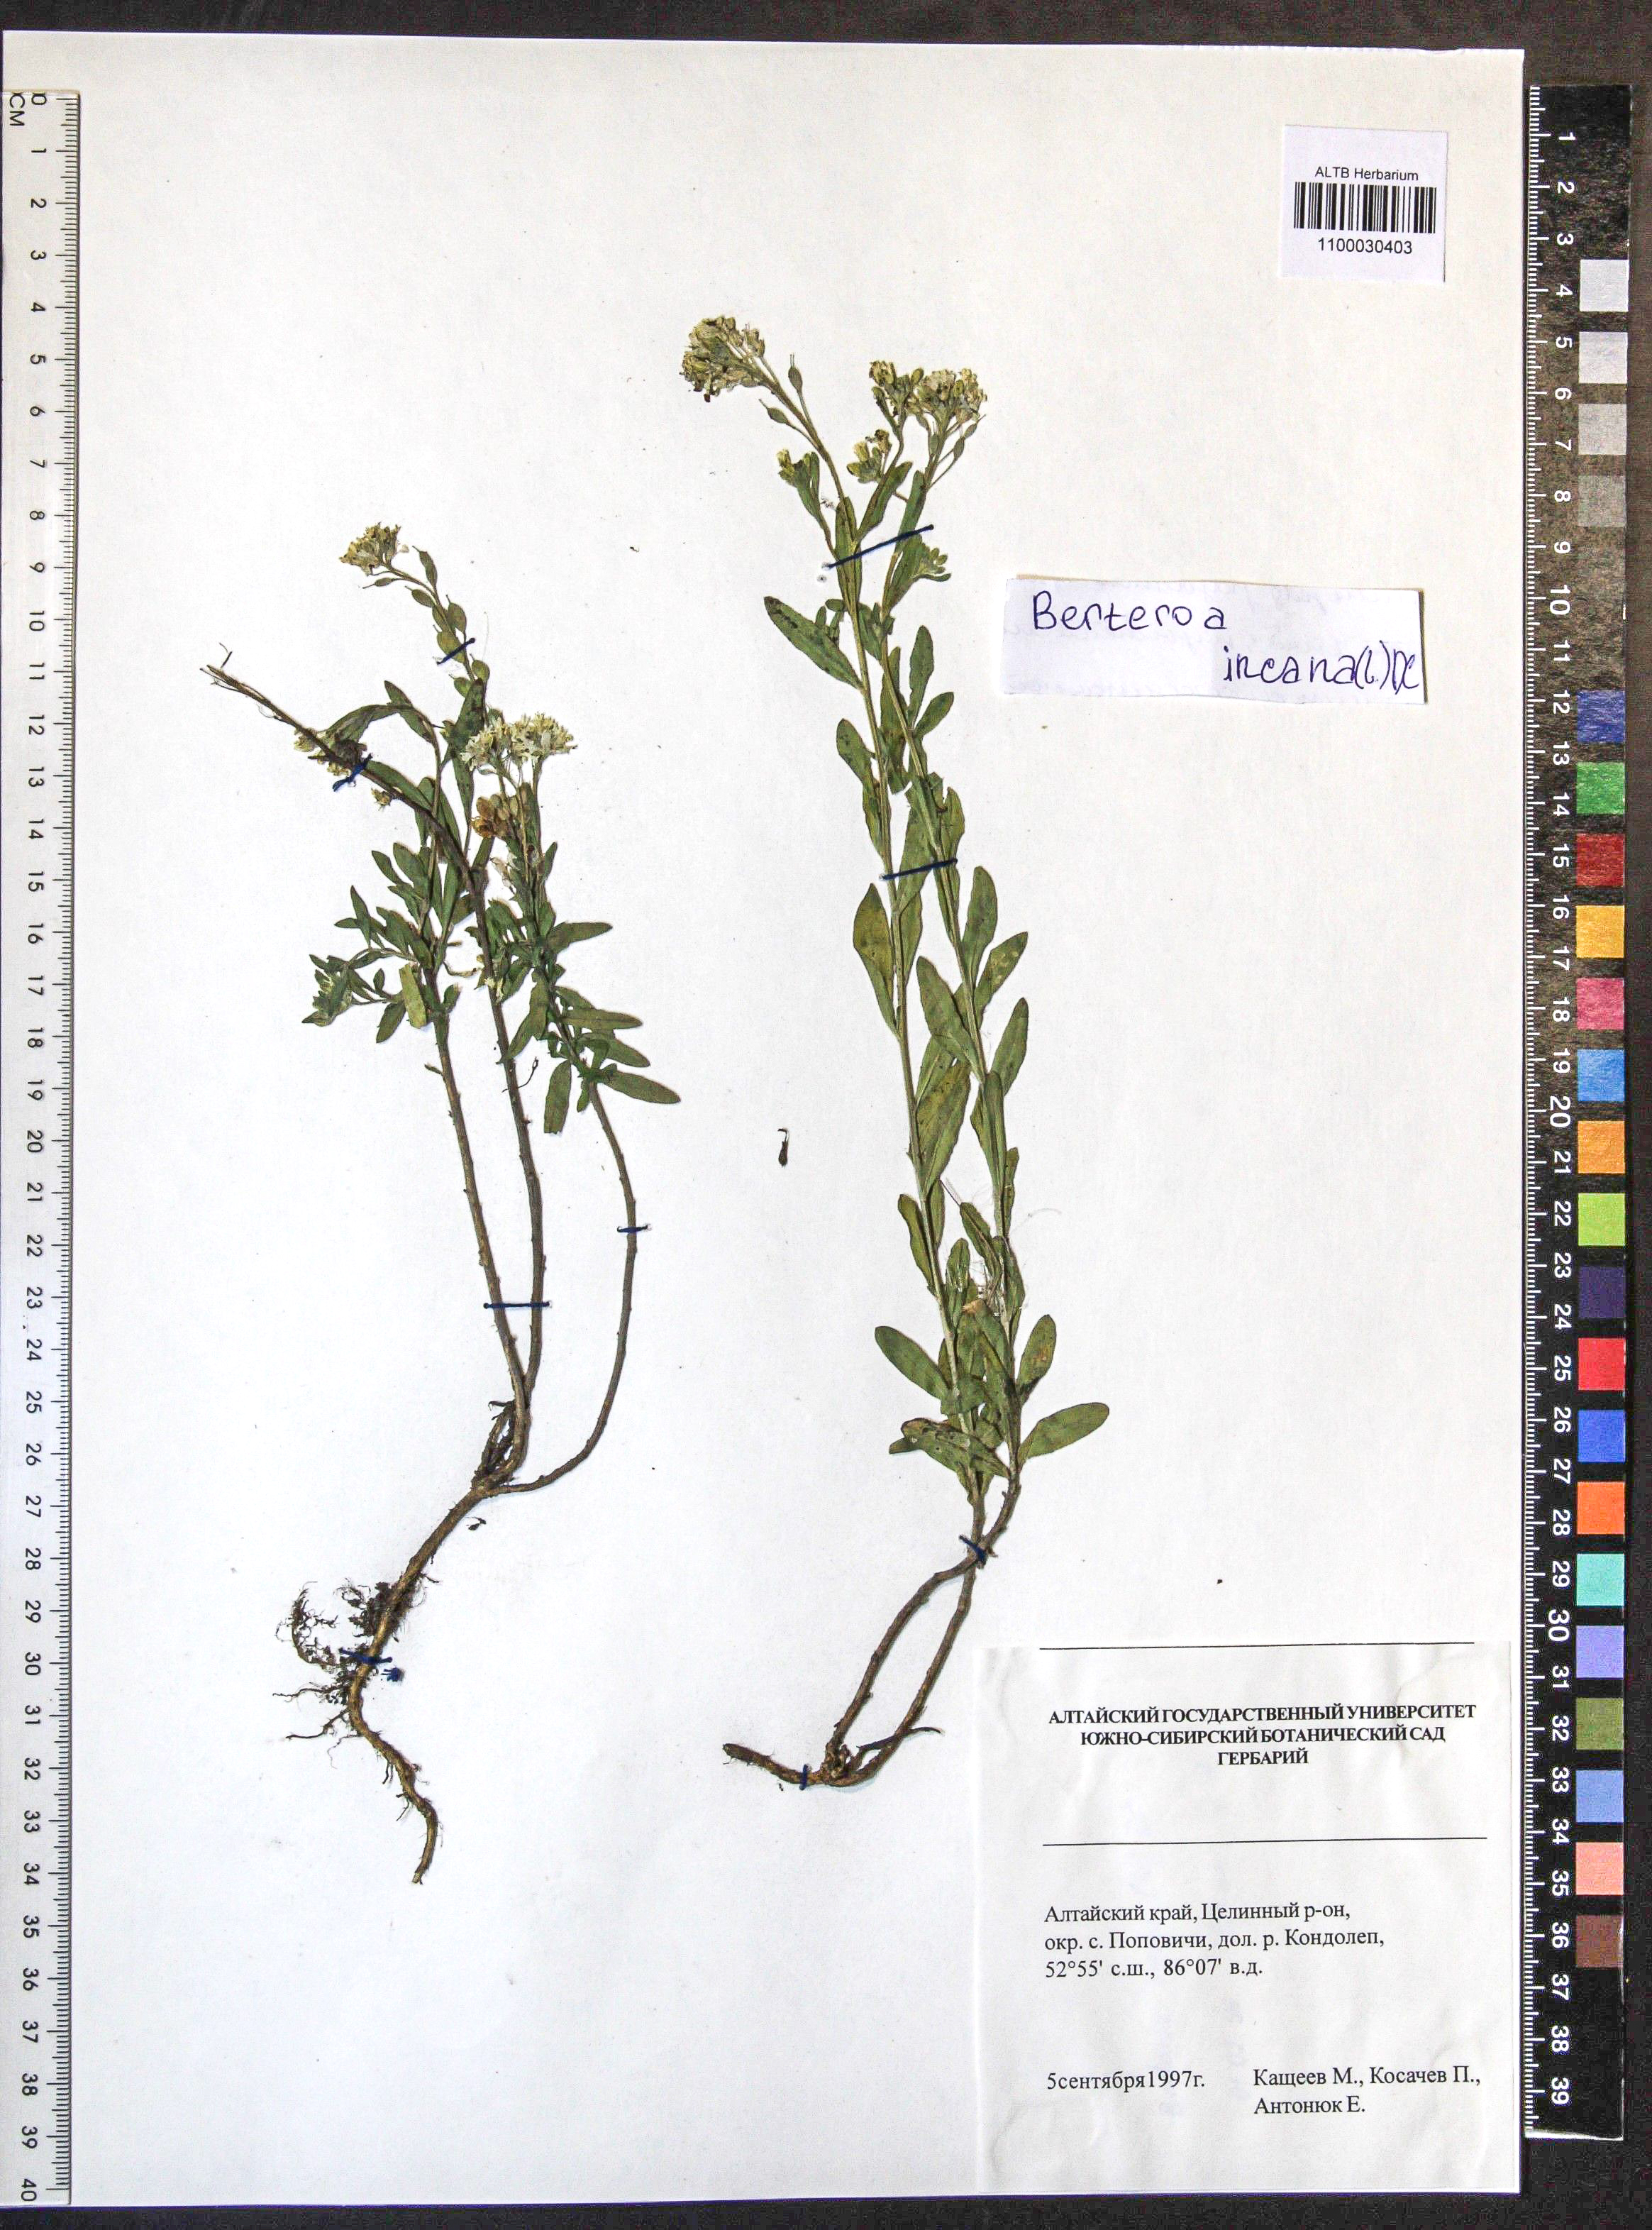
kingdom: Plantae
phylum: Tracheophyta
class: Magnoliopsida
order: Brassicales
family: Brassicaceae
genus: Berteroa
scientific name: Berteroa incana
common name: Hoary alison
